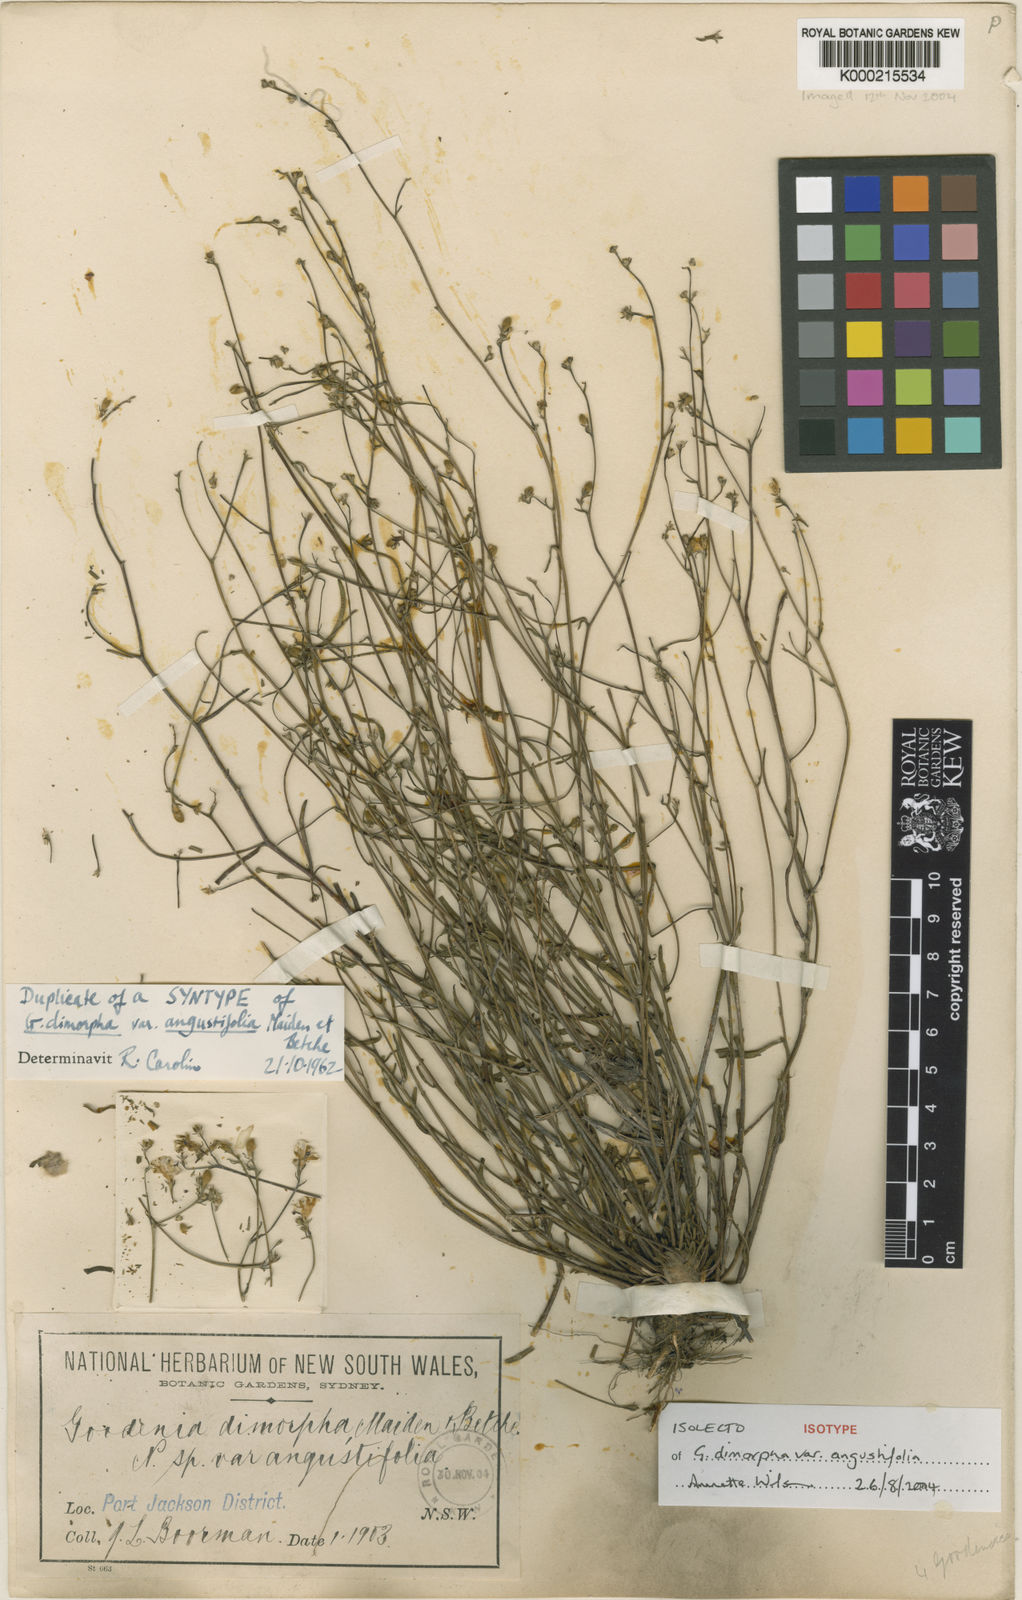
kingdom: Plantae
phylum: Tracheophyta
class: Magnoliopsida
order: Asterales
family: Goodeniaceae
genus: Goodenia
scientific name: Goodenia dimorpha
